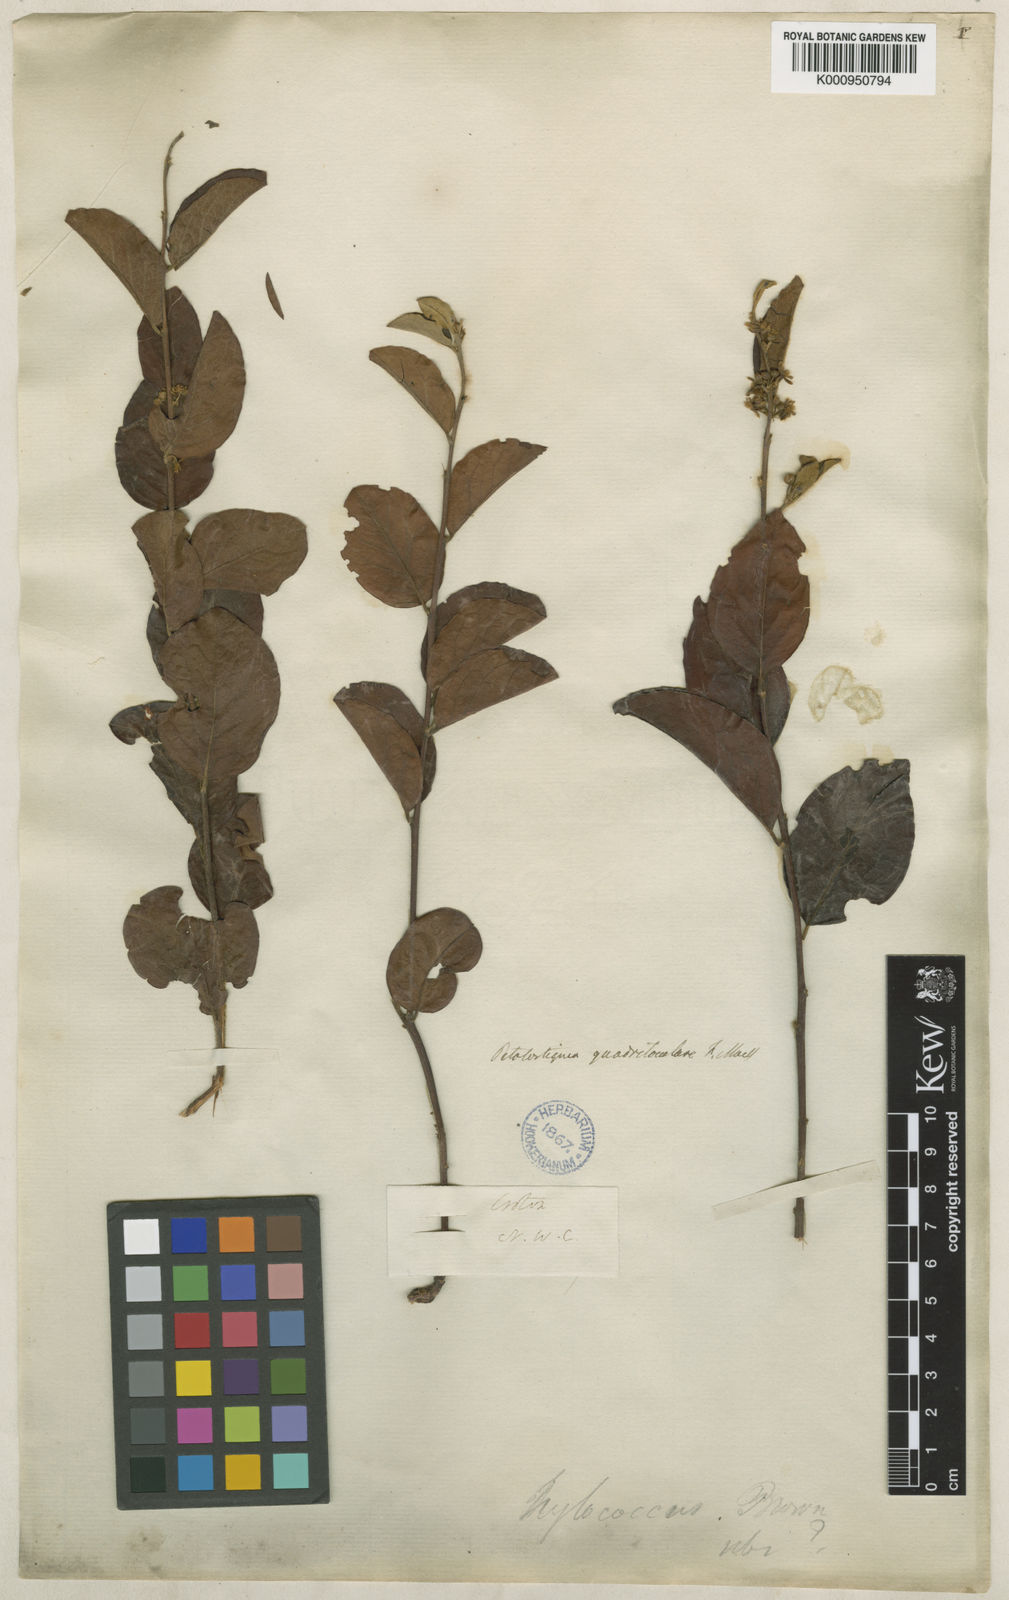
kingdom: Plantae
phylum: Tracheophyta
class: Magnoliopsida
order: Malpighiales
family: Picrodendraceae
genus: Petalostigma
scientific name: Petalostigma quadriloculare
